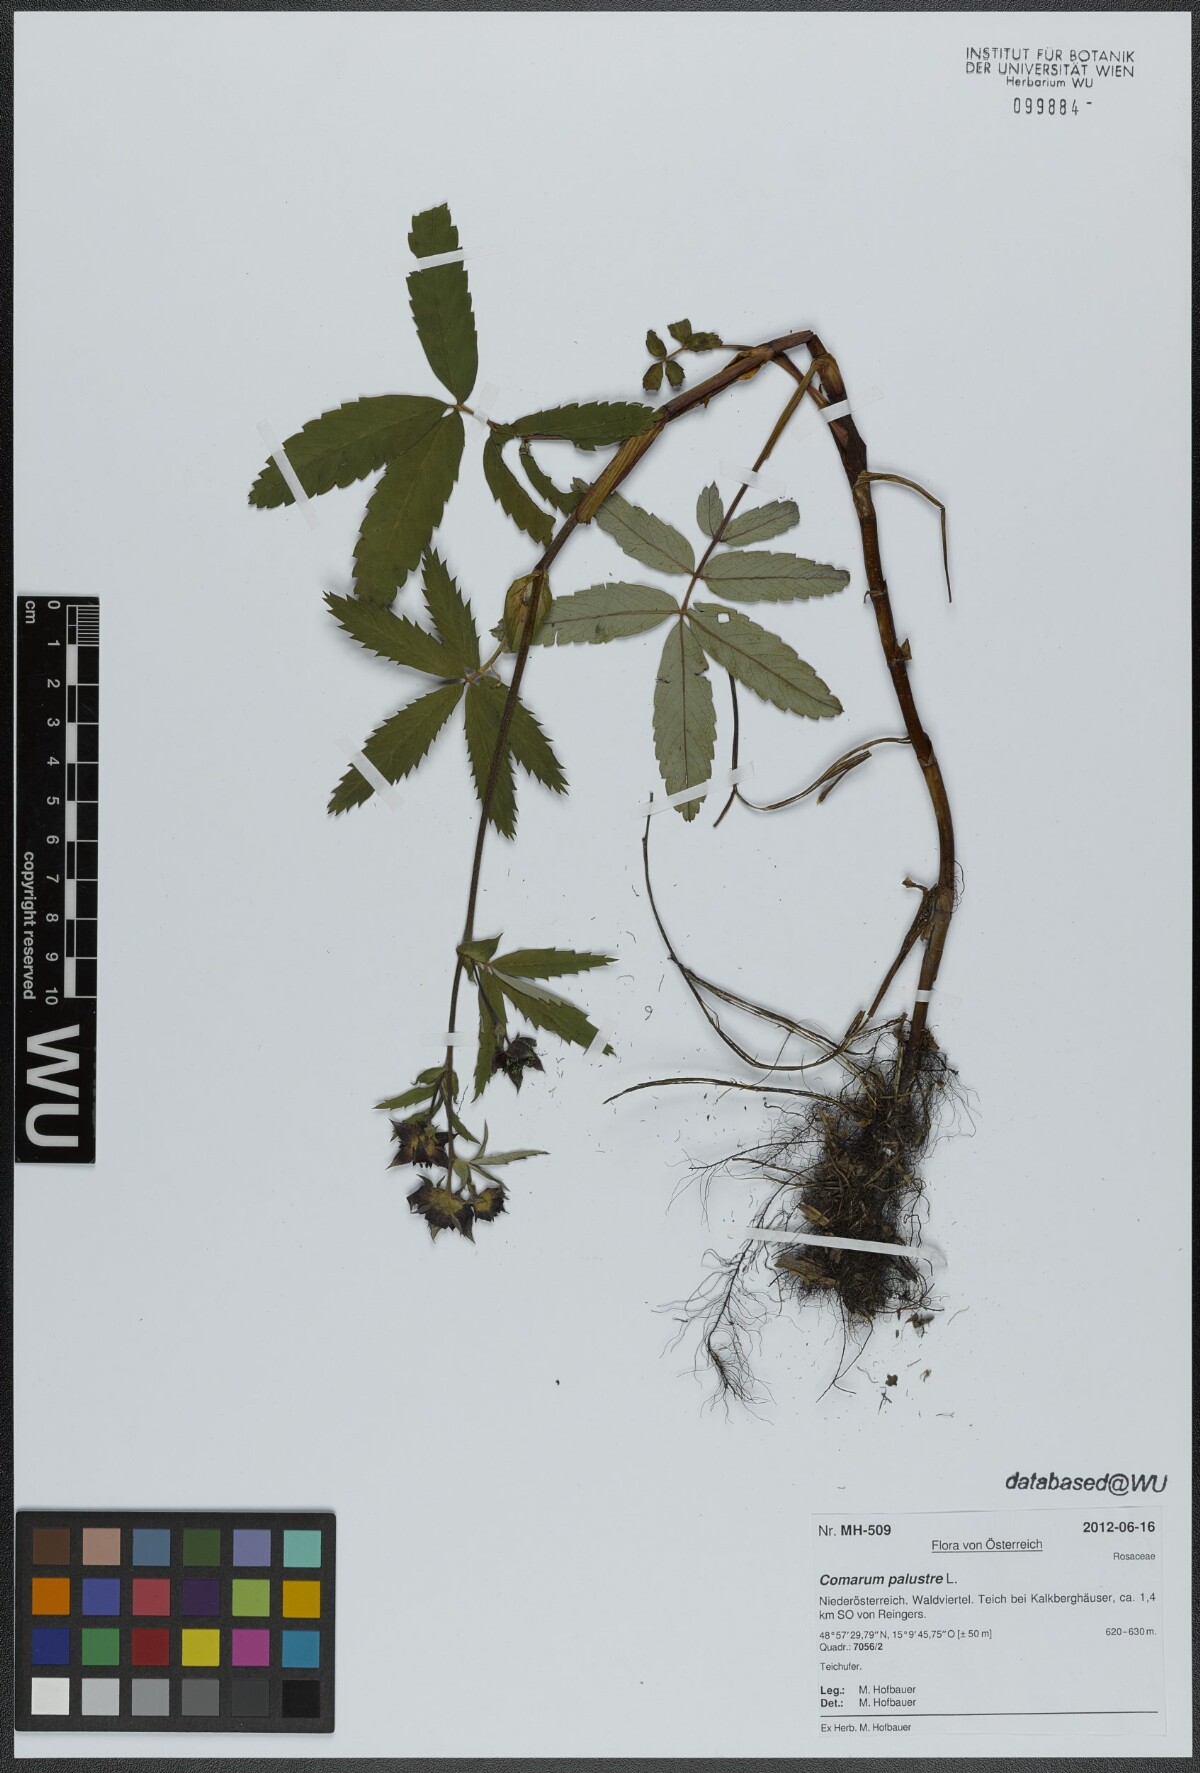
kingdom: Plantae
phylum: Tracheophyta
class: Magnoliopsida
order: Rosales
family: Rosaceae
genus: Comarum
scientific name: Comarum palustre
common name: Marsh cinquefoil
